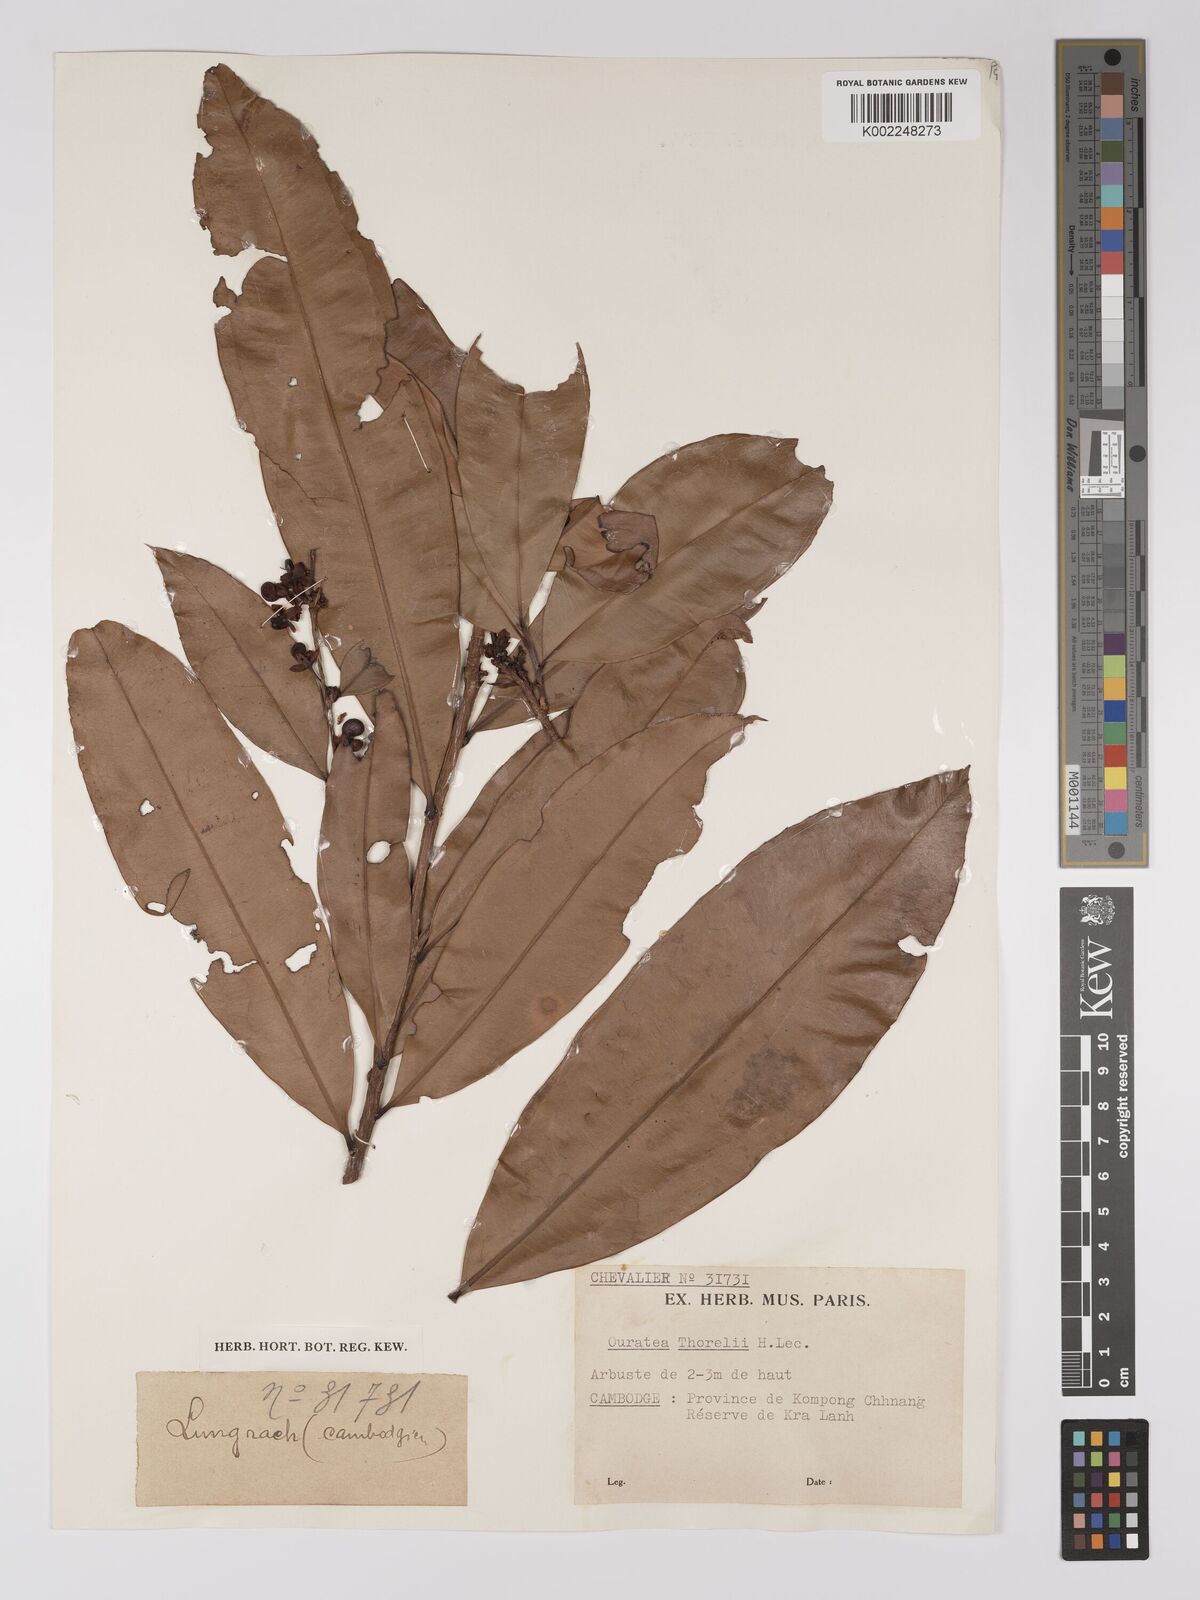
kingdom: Plantae
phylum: Tracheophyta
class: Magnoliopsida
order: Malpighiales
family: Ochnaceae
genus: Gomphia
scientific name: Gomphia serrata
